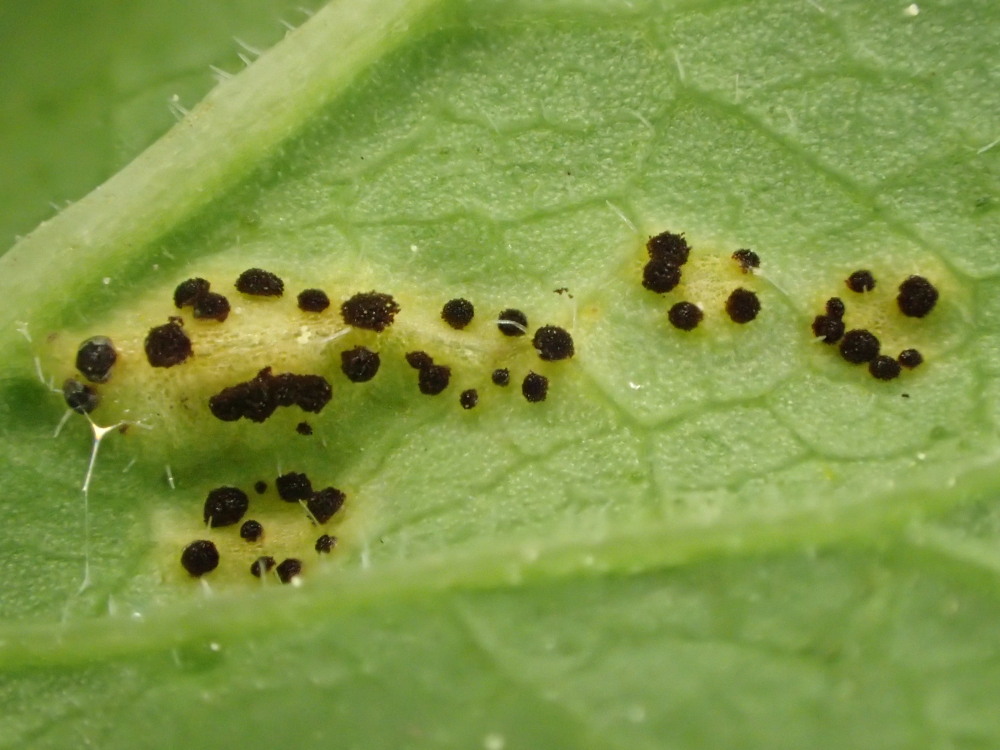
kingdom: Fungi
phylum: Basidiomycota
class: Pucciniomycetes
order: Pucciniales
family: Pucciniaceae
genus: Puccinia
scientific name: Puccinia
